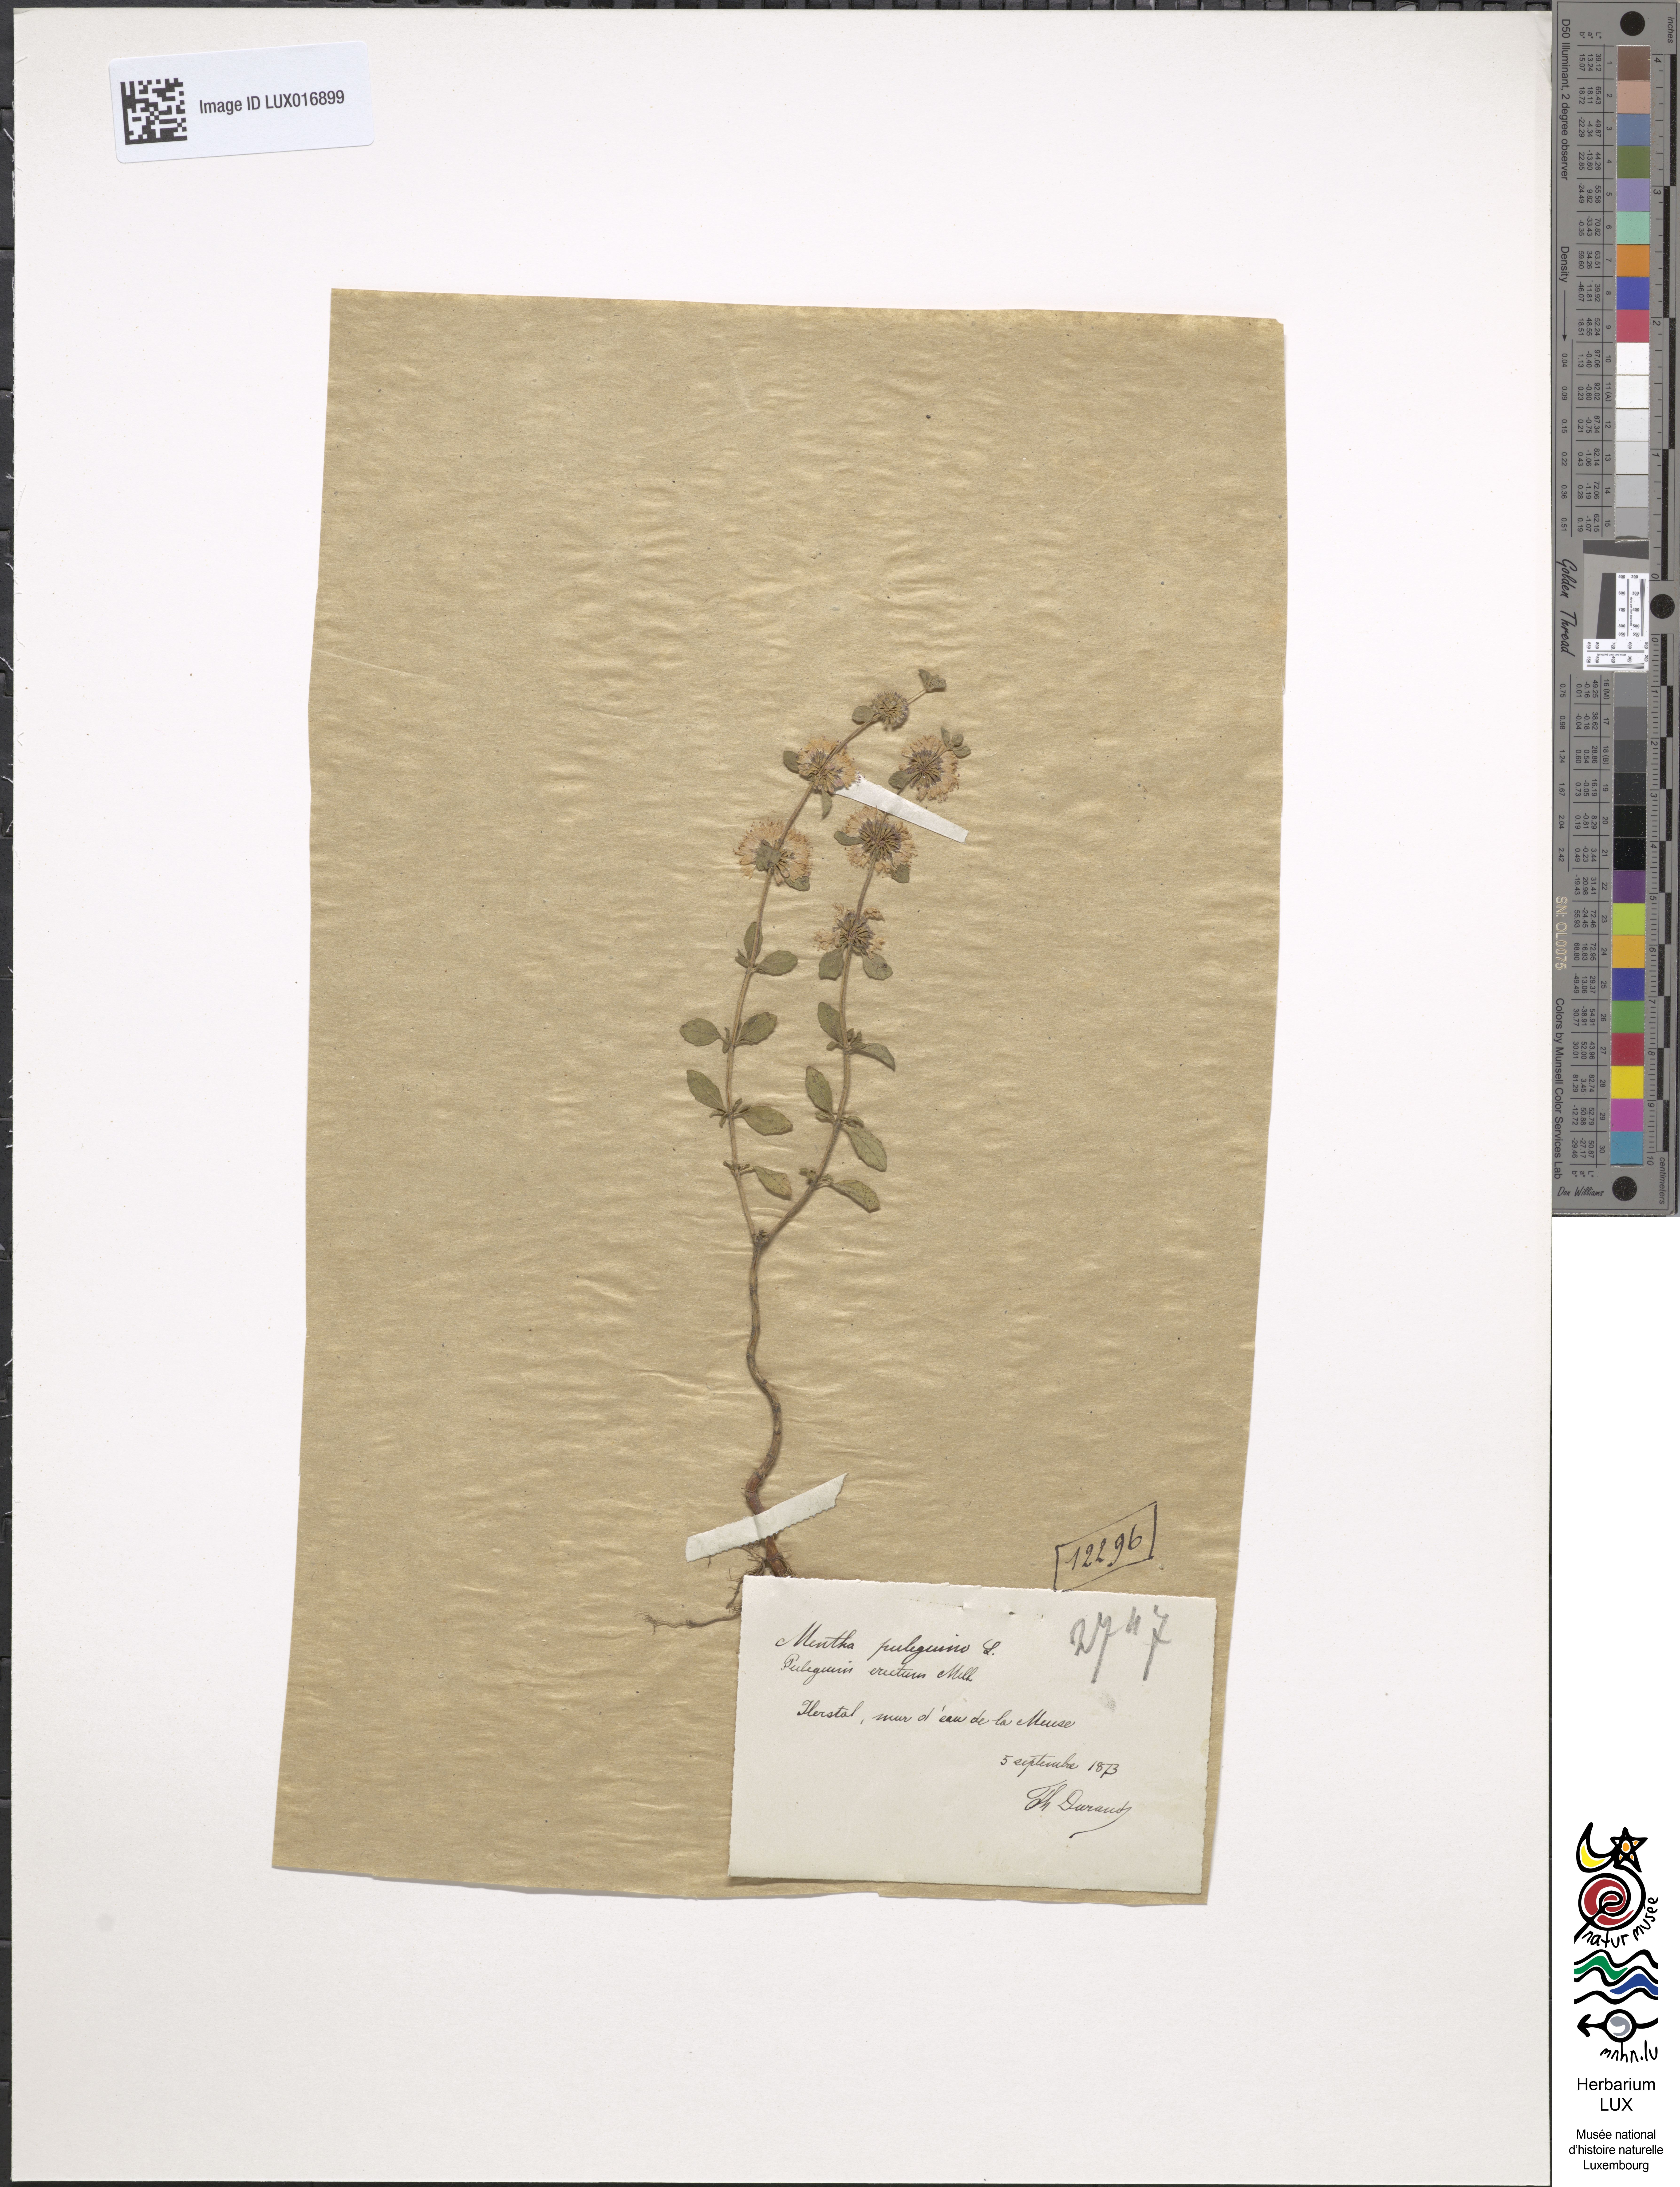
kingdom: Plantae
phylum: Tracheophyta
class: Magnoliopsida
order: Lamiales
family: Lamiaceae
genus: Mentha
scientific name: Mentha pulegium
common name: Pennyroyal
